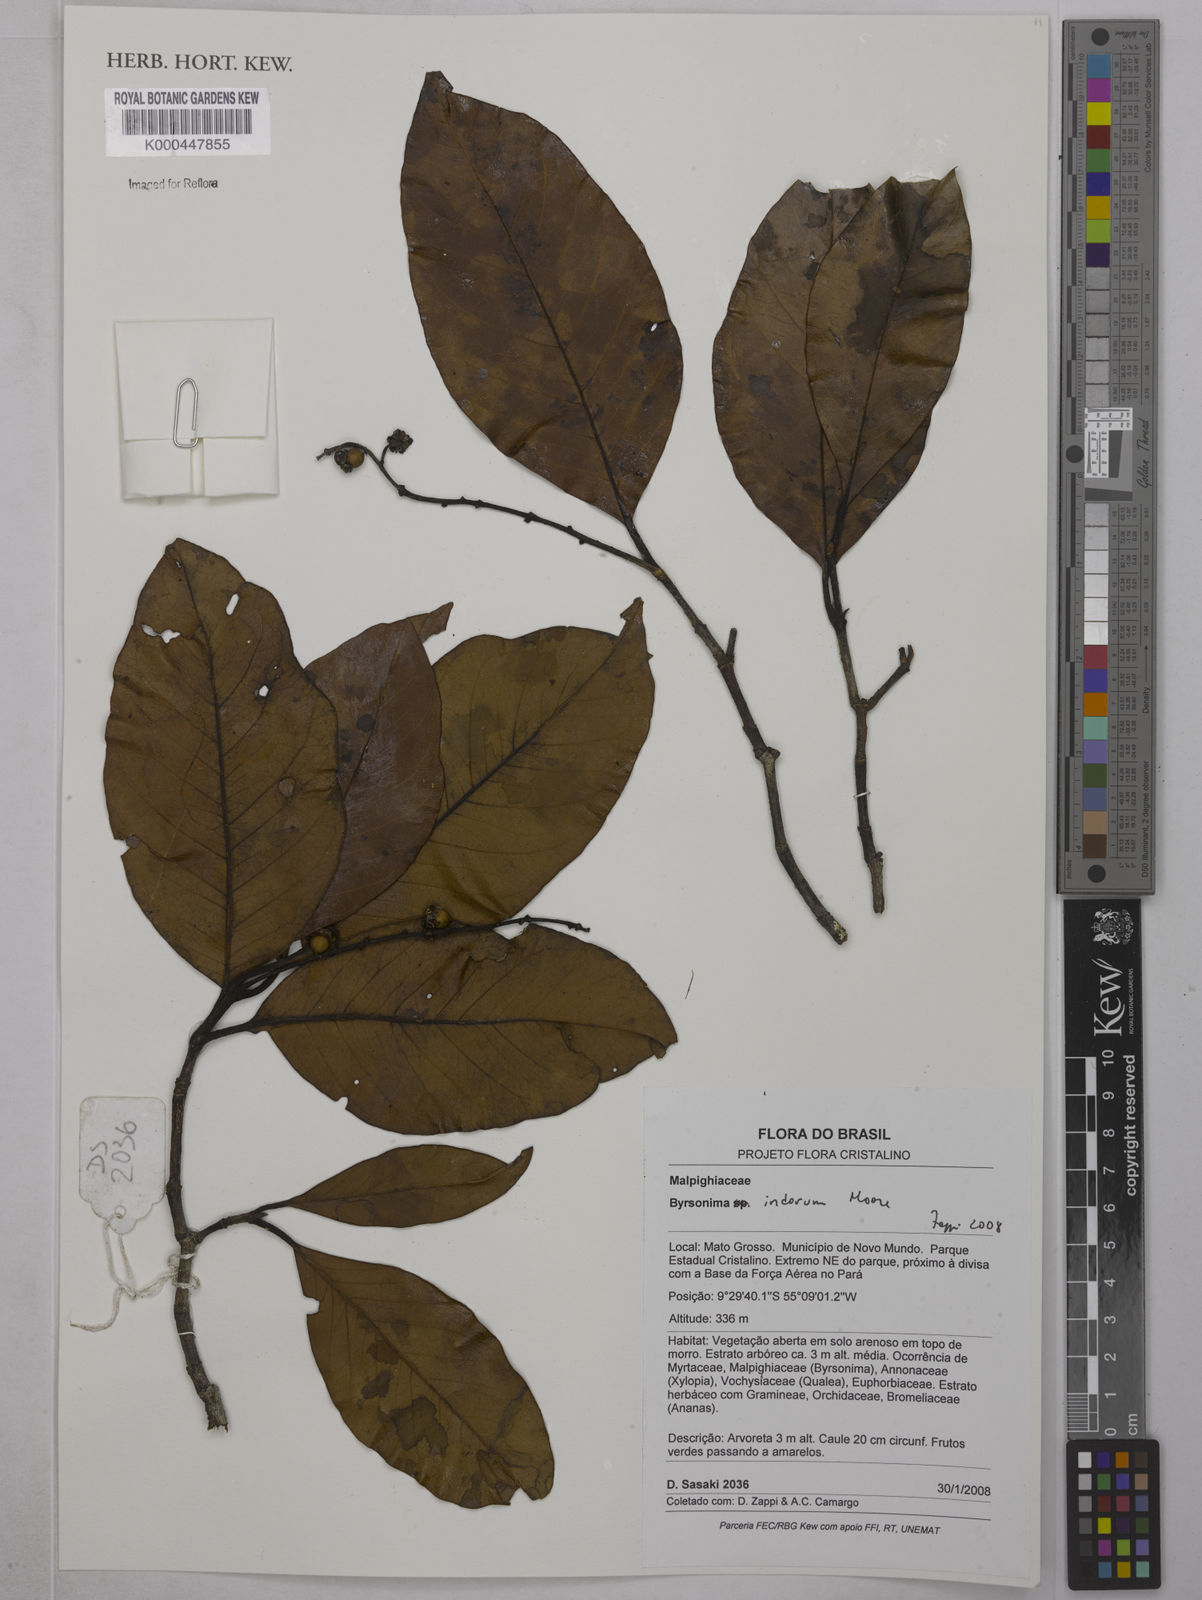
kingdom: Plantae
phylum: Tracheophyta
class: Magnoliopsida
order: Malpighiales
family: Malpighiaceae
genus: Byrsonima
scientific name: Byrsonima arthropoda
